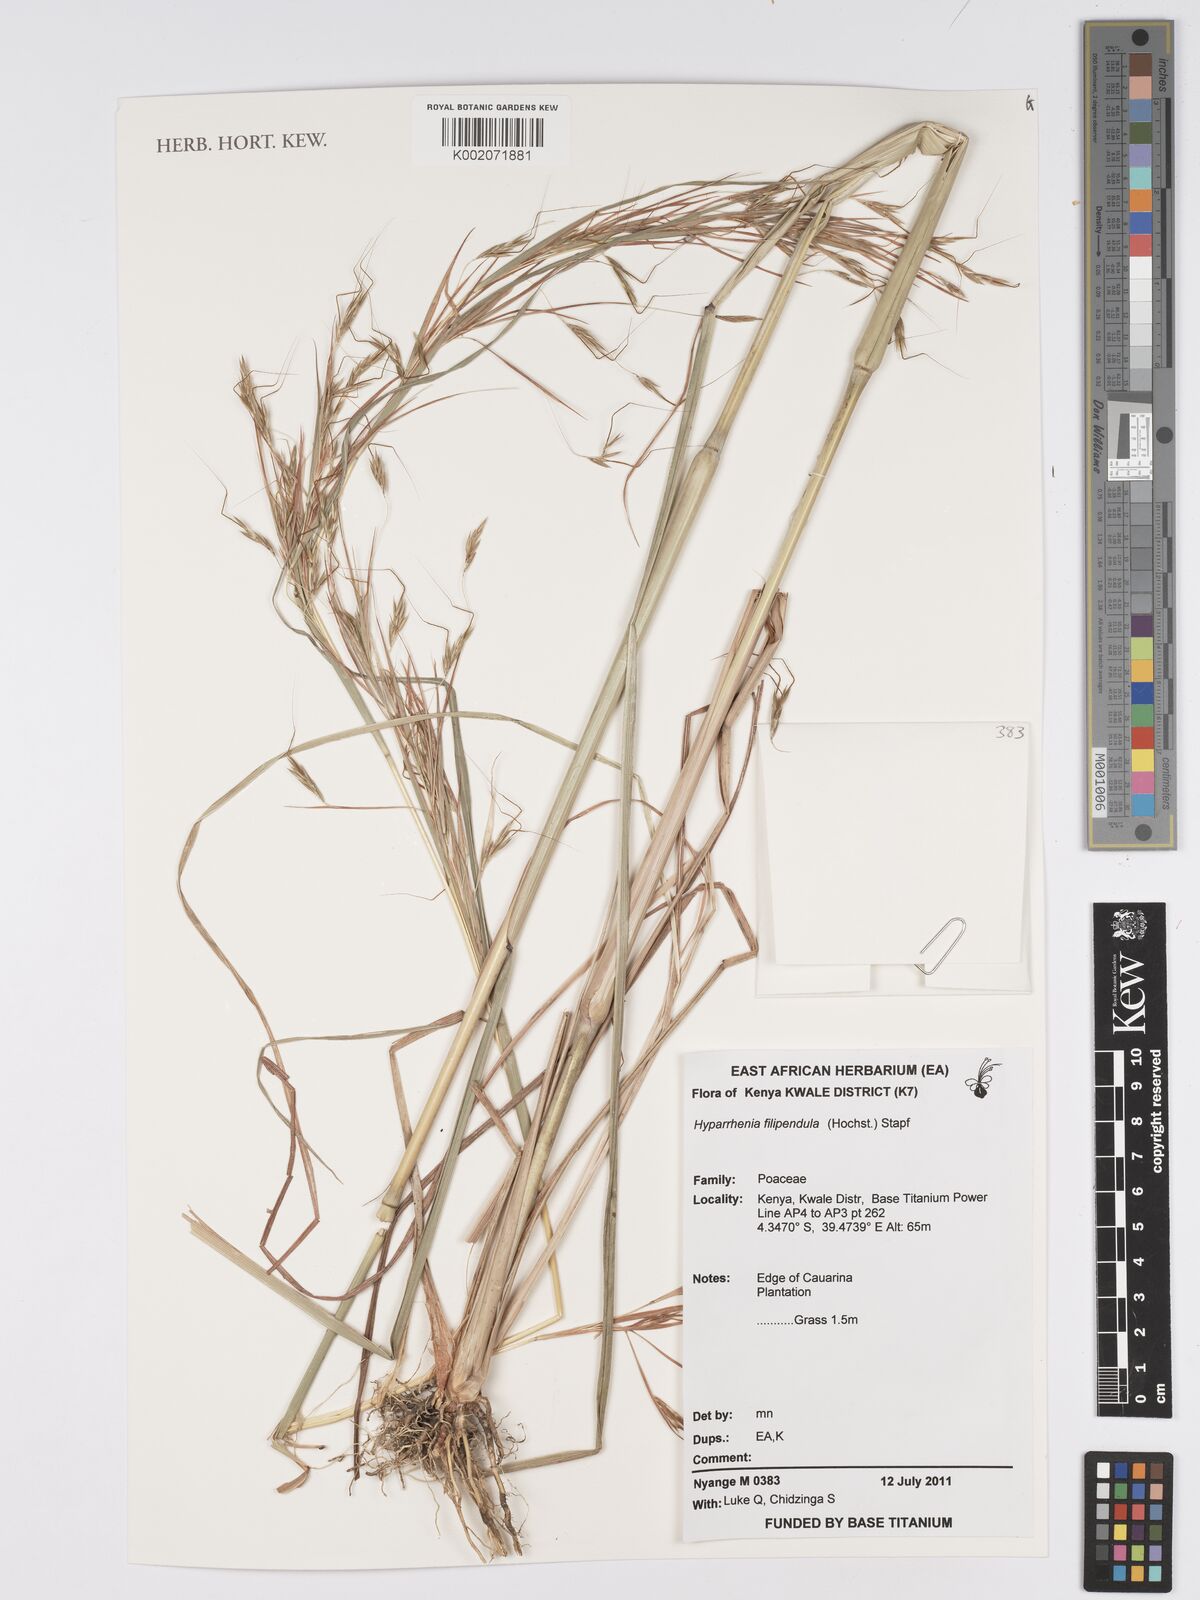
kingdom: Plantae
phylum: Tracheophyta
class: Liliopsida
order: Poales
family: Poaceae
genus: Hyparrhenia
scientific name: Hyparrhenia filipendula
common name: Tambookie grass
